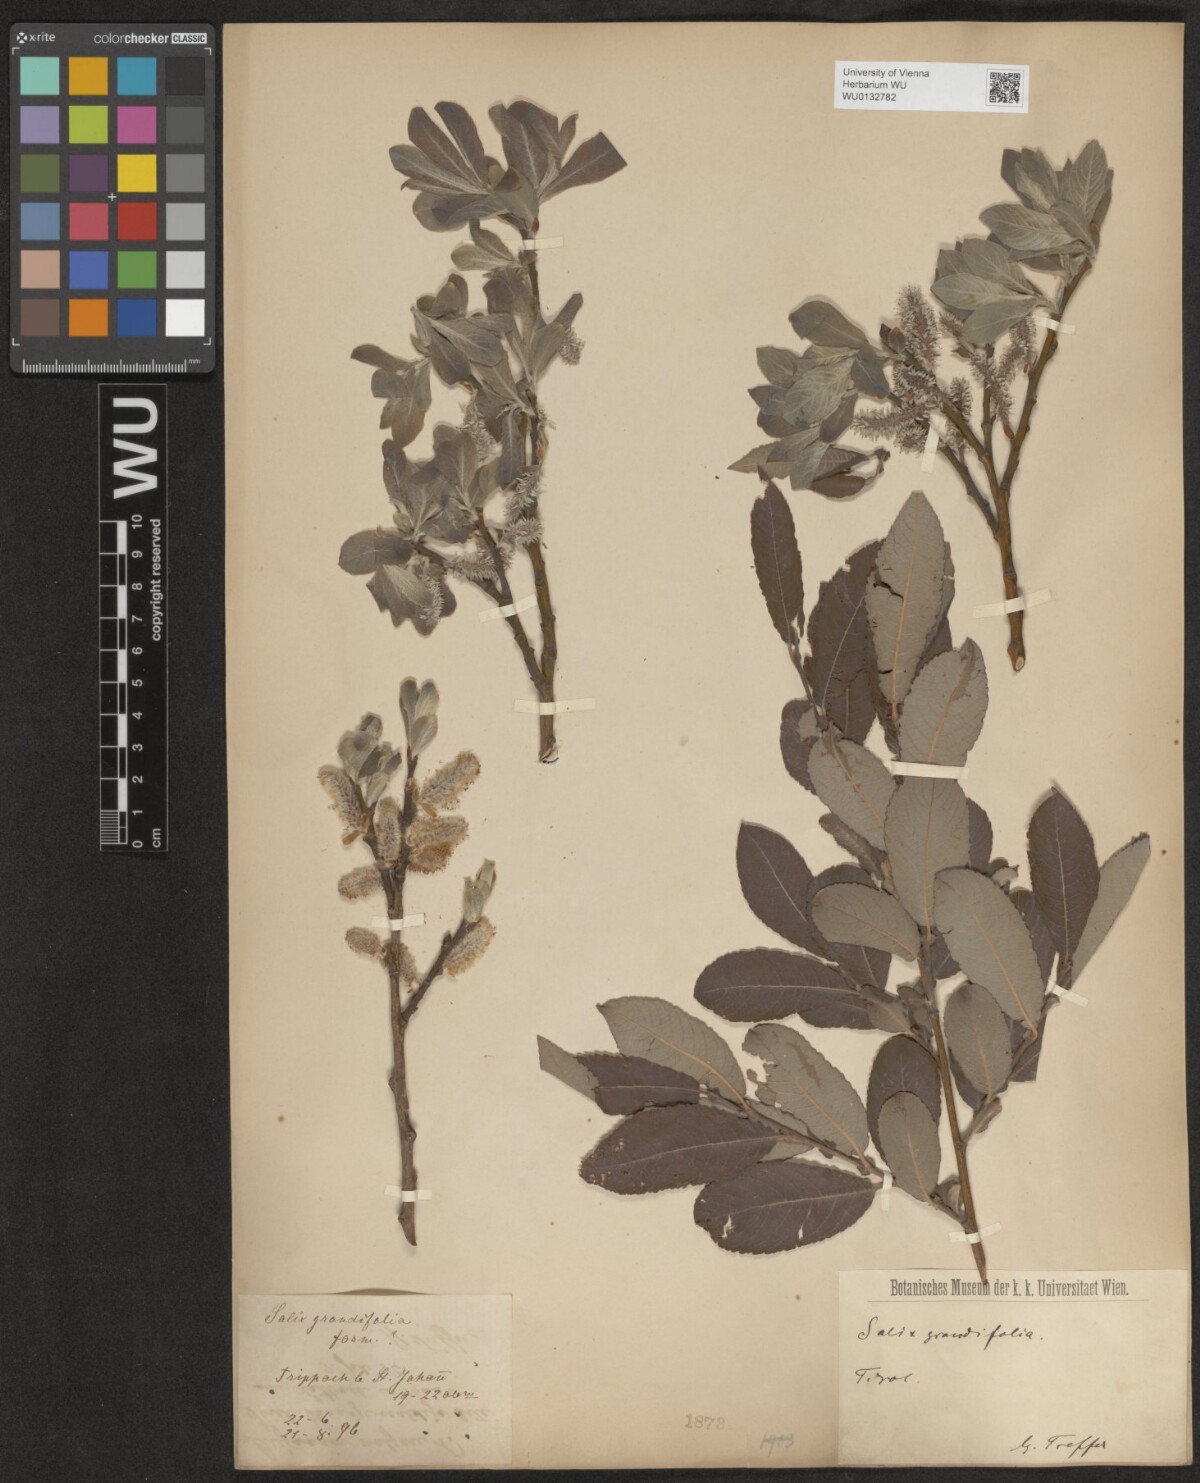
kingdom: Plantae
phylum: Tracheophyta
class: Magnoliopsida
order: Malpighiales
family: Salicaceae
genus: Salix
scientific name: Salix appendiculata
